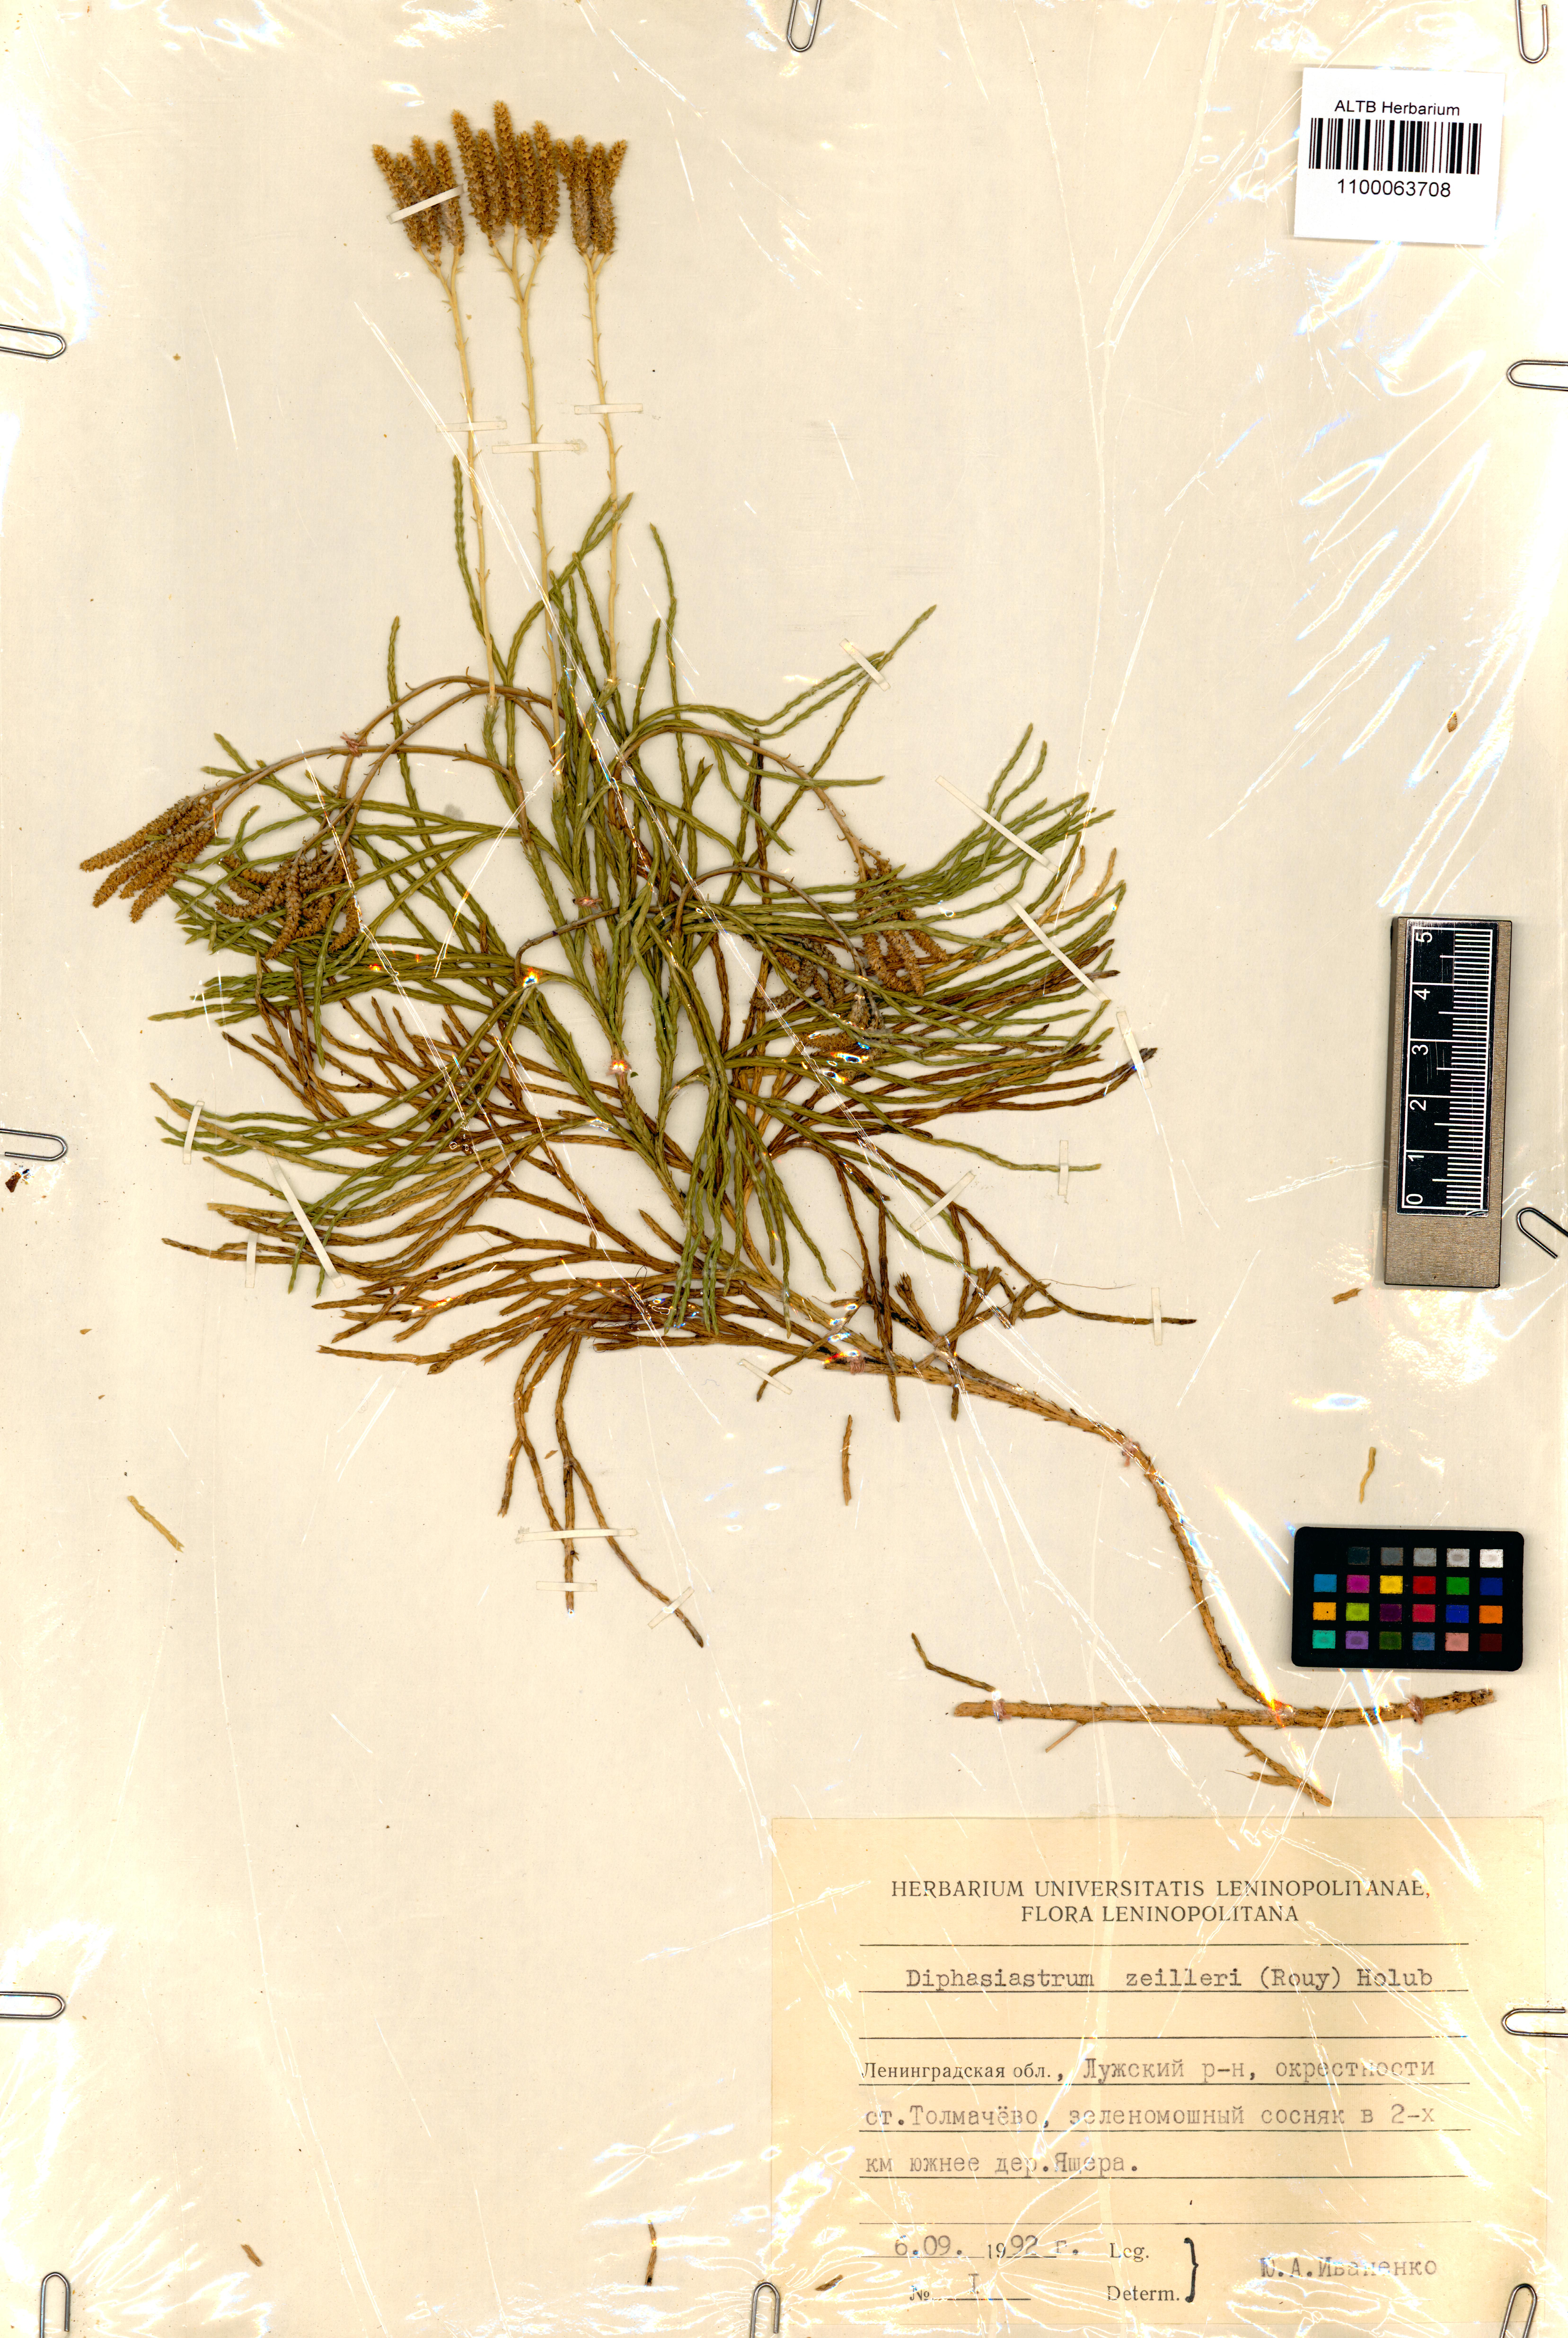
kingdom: Plantae
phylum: Tracheophyta
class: Lycopodiopsida
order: Lycopodiales
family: Lycopodiaceae
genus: Diphasiastrum
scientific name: Diphasiastrum zeilleri
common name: Zeiller's clubmoss
